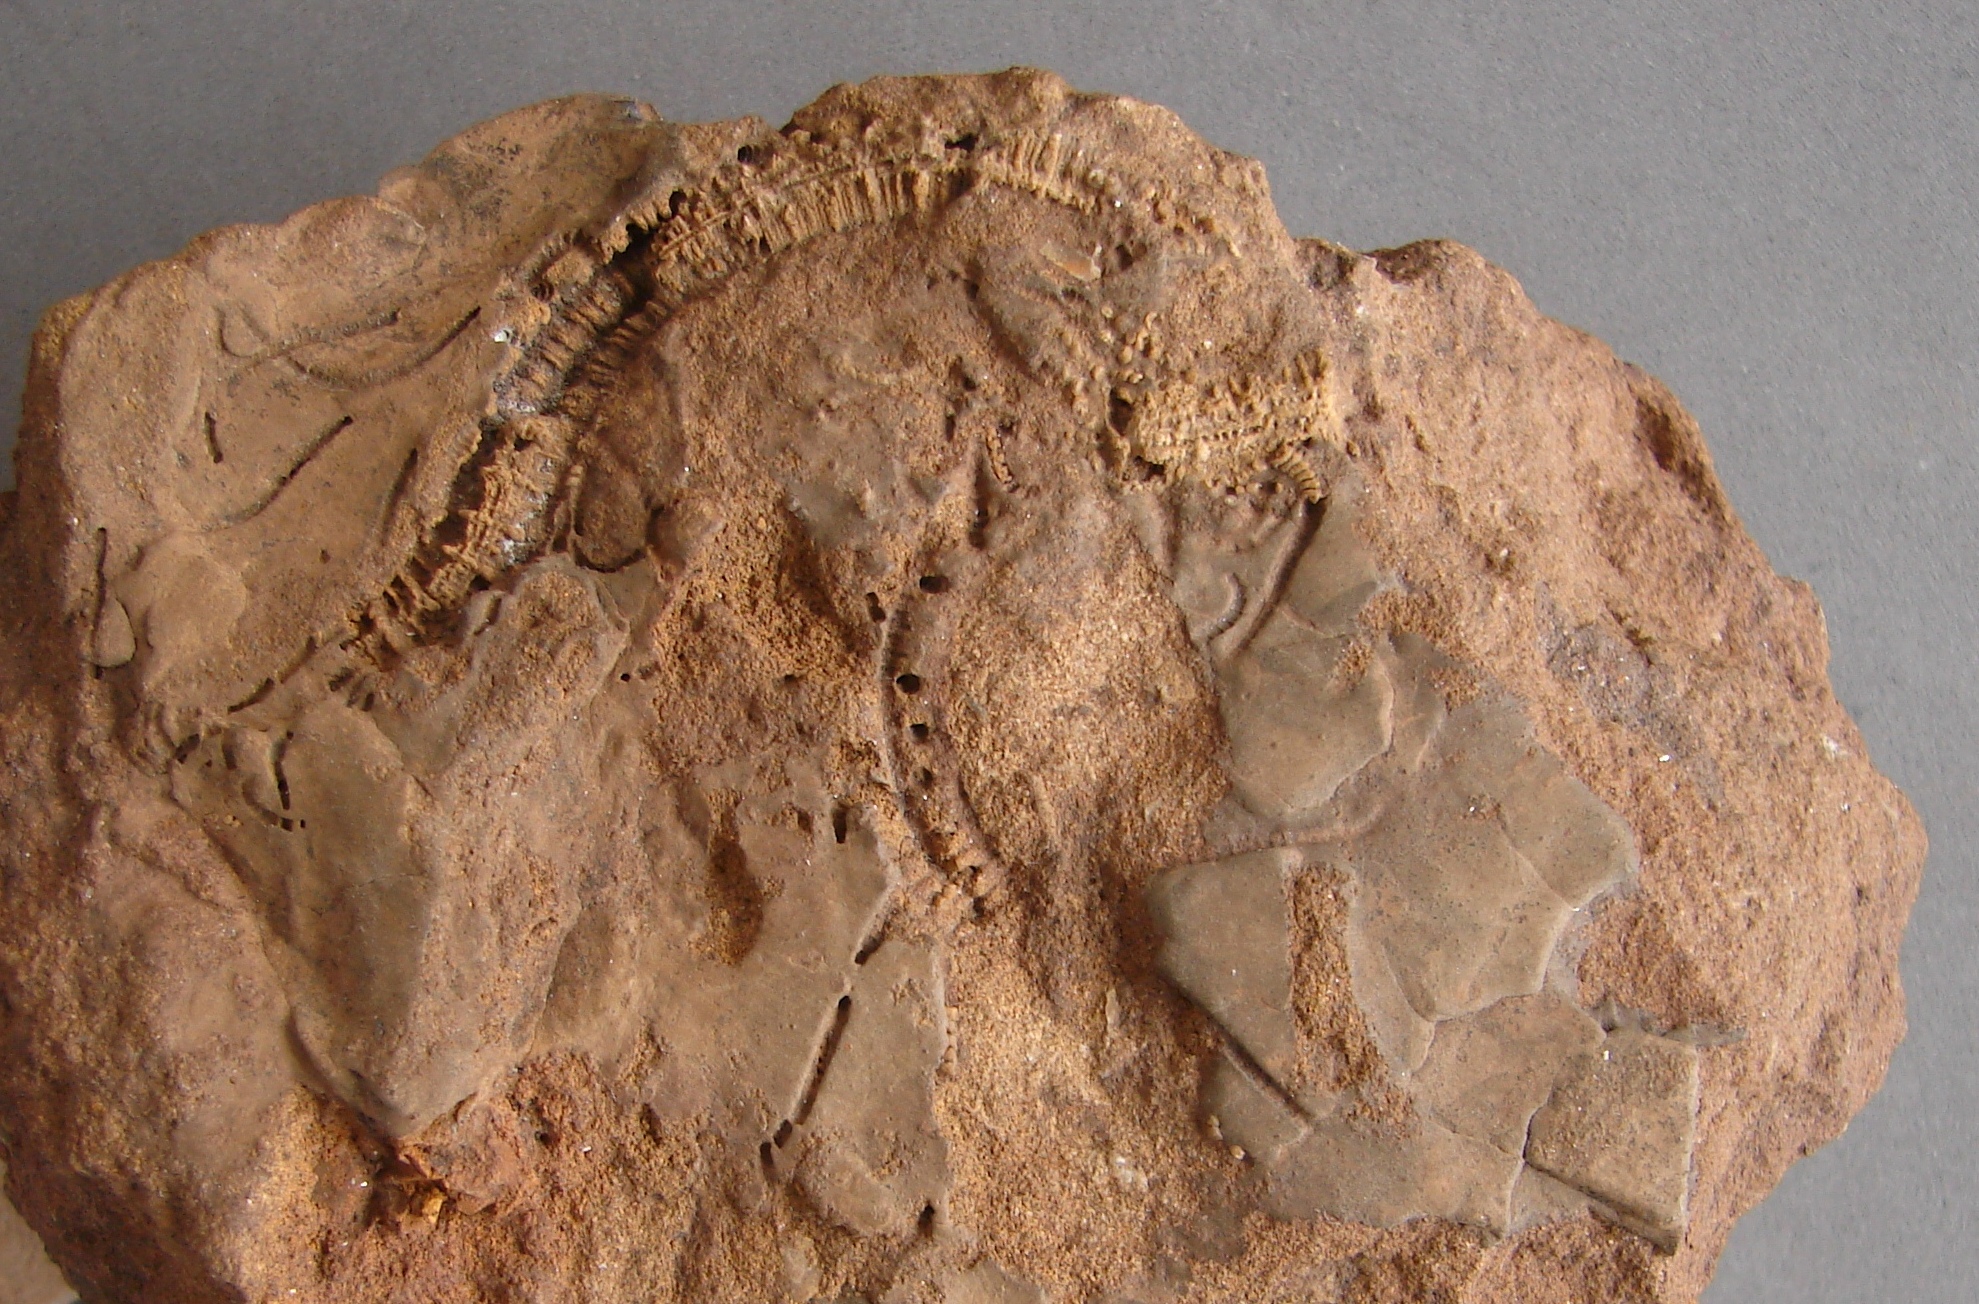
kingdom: Animalia
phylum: Echinodermata
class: Crinoidea
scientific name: Crinoidea
